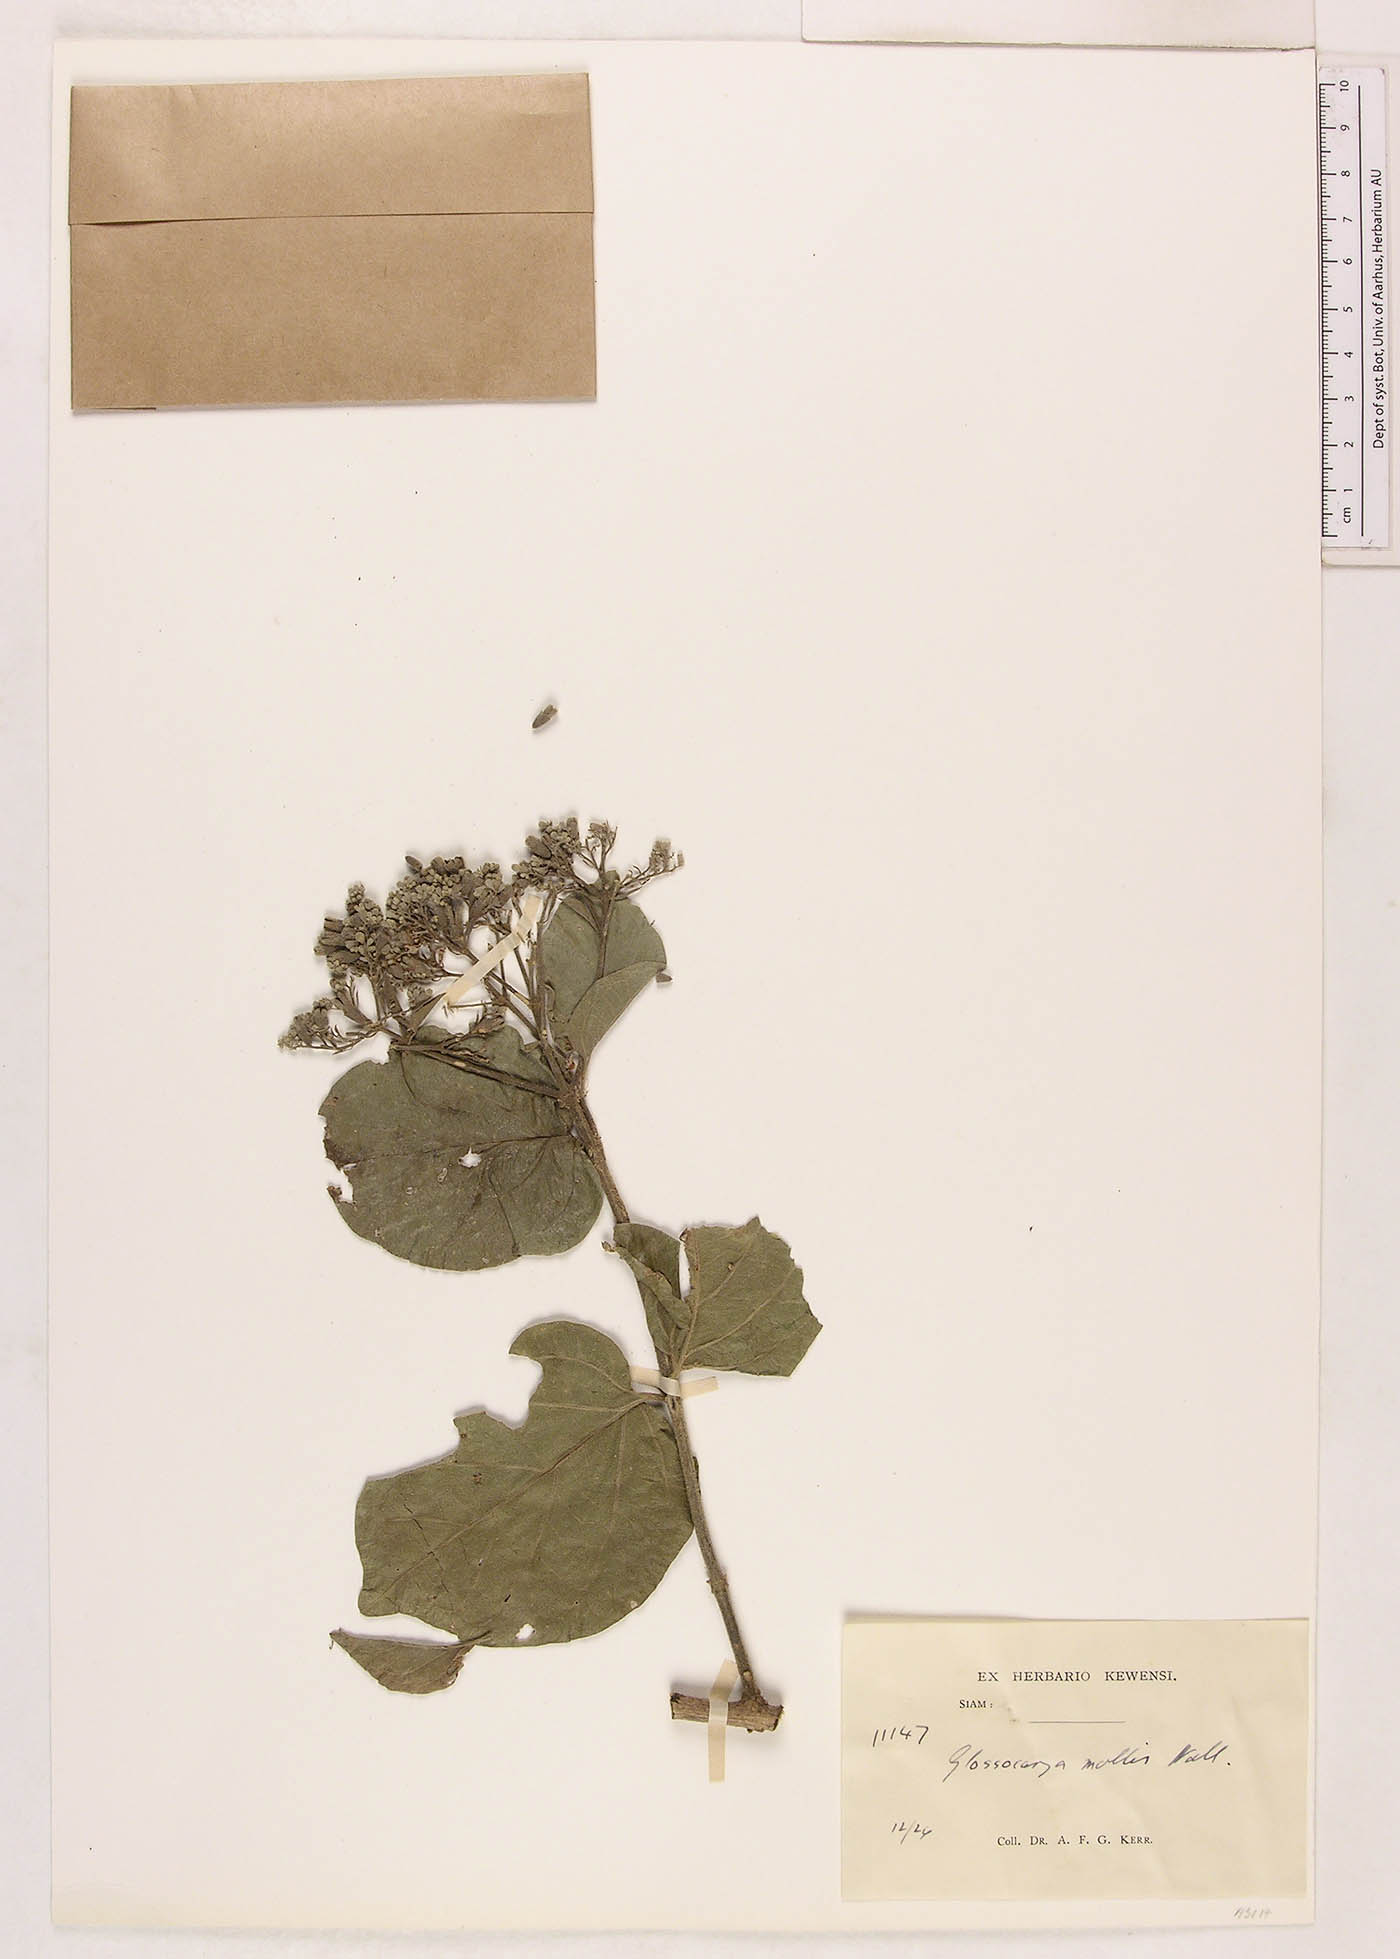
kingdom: Plantae
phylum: Tracheophyta
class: Magnoliopsida
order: Lamiales
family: Lamiaceae
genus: Glossocarya
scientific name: Glossocarya mollis
